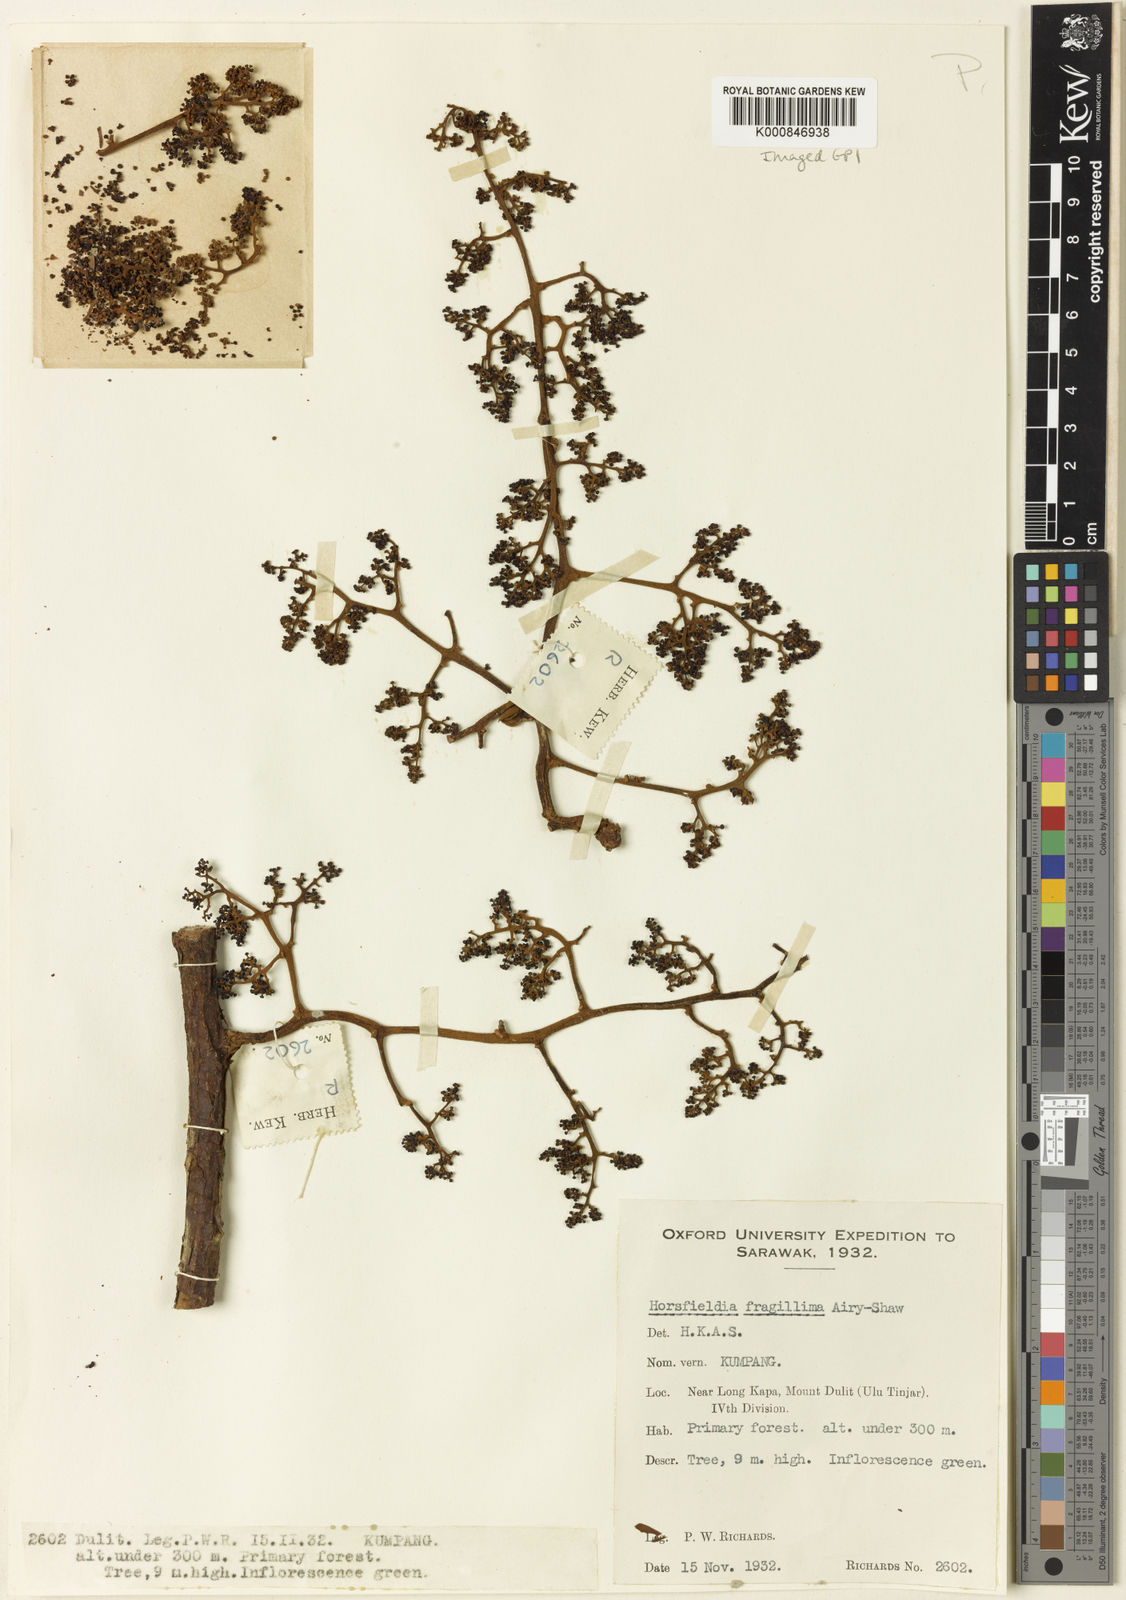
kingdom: Plantae
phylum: Tracheophyta
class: Magnoliopsida
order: Magnoliales
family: Myristicaceae
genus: Horsfieldia
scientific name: Horsfieldia fragillima
